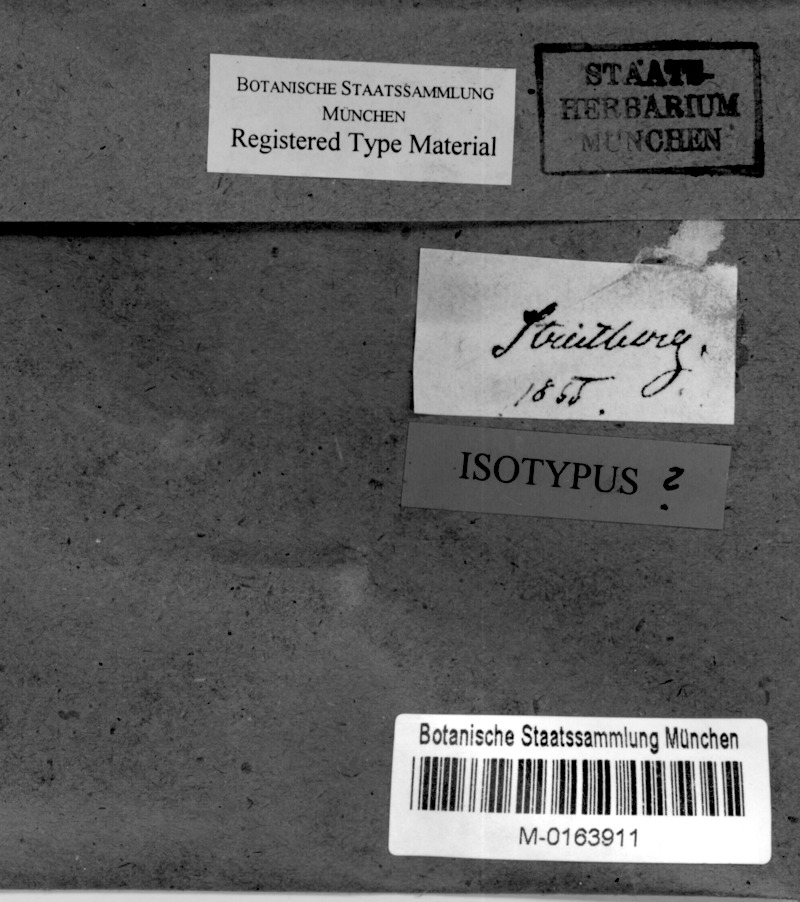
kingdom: Fungi
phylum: Ascomycota
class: Eurotiomycetes
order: Verrucariales
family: Verrucariaceae
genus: Verruculopsis
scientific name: Verruculopsis
